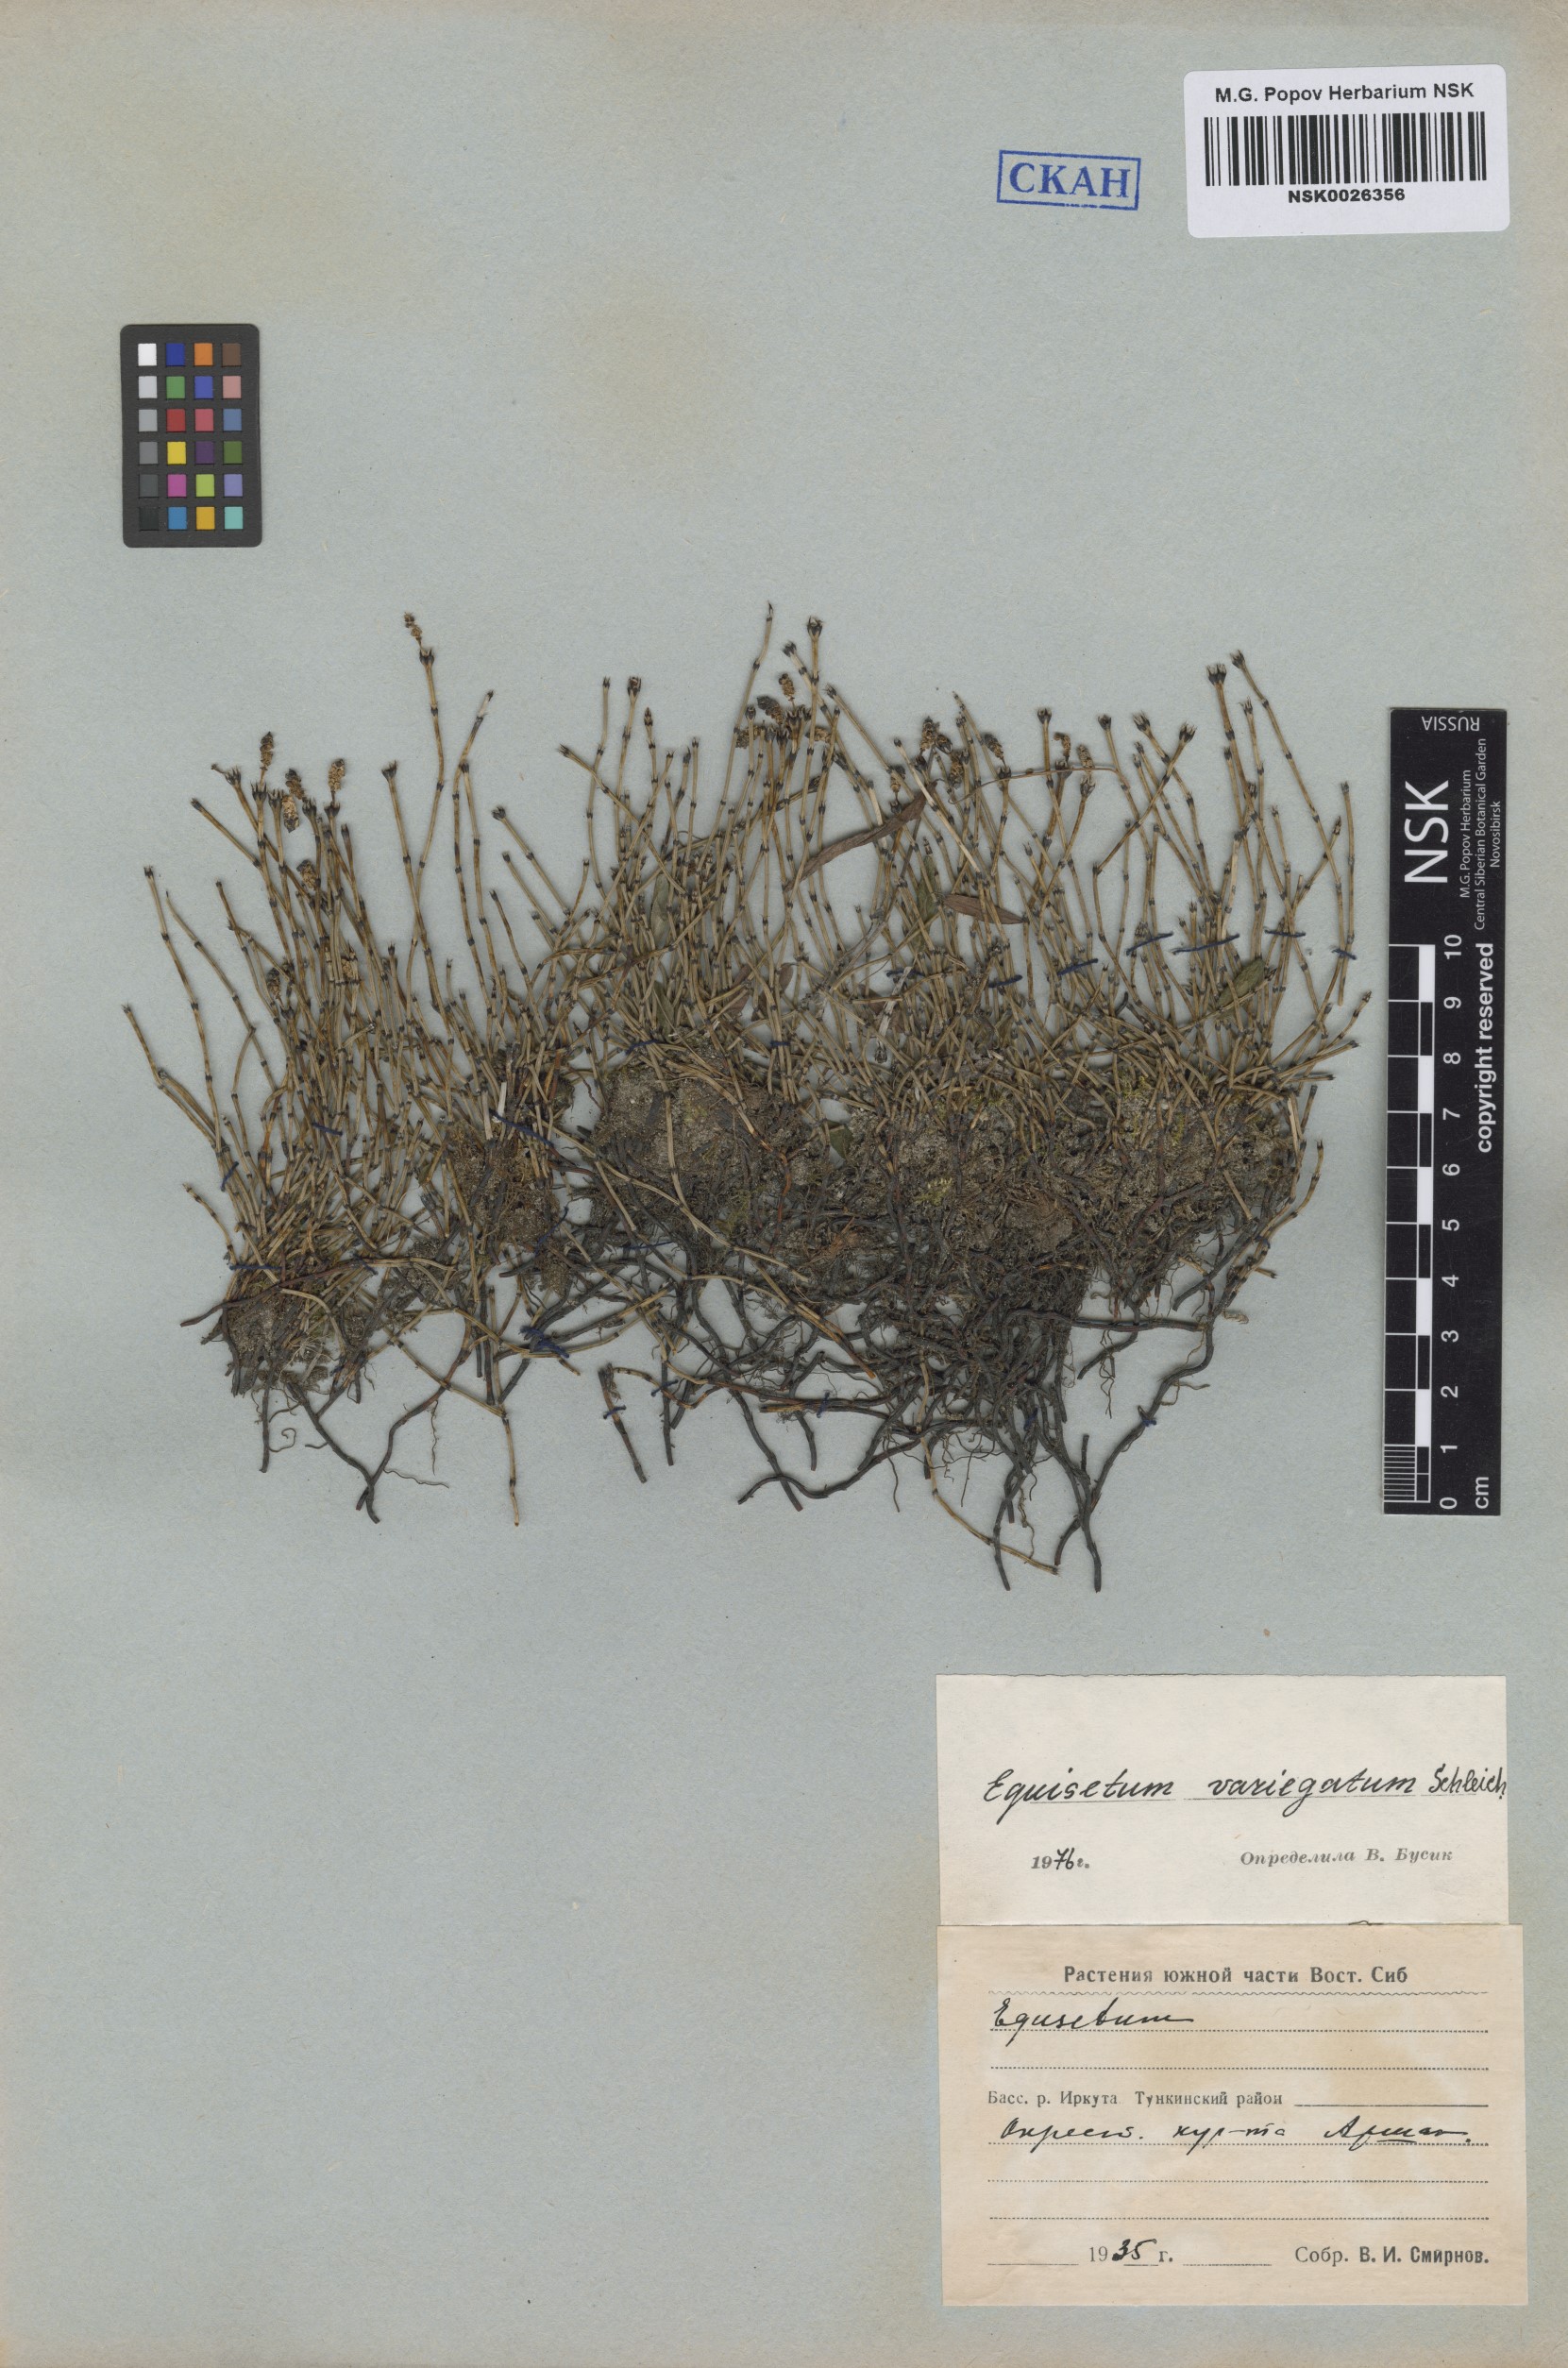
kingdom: Plantae
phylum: Tracheophyta
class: Polypodiopsida
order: Equisetales
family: Equisetaceae
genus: Equisetum
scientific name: Equisetum variegatum
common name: Variegated horsetail
